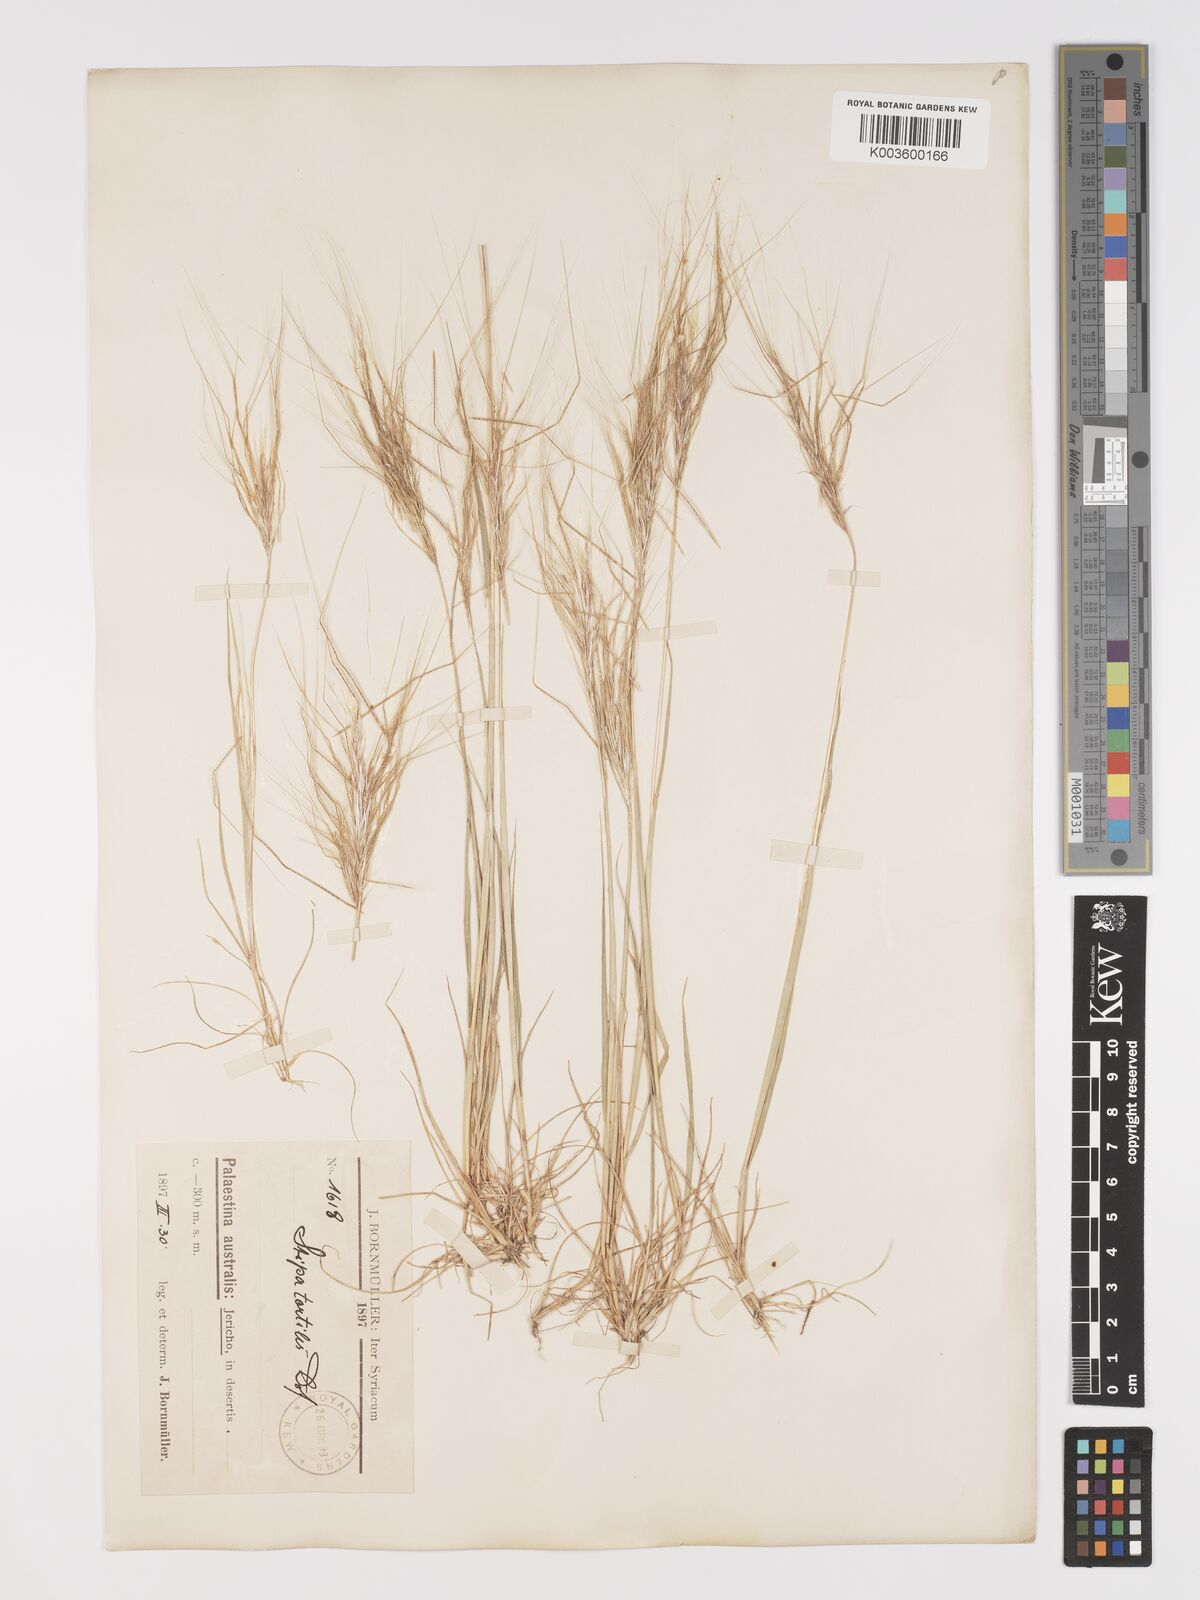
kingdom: Plantae
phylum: Tracheophyta
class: Liliopsida
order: Poales
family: Poaceae
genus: Stipellula
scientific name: Stipellula capensis
